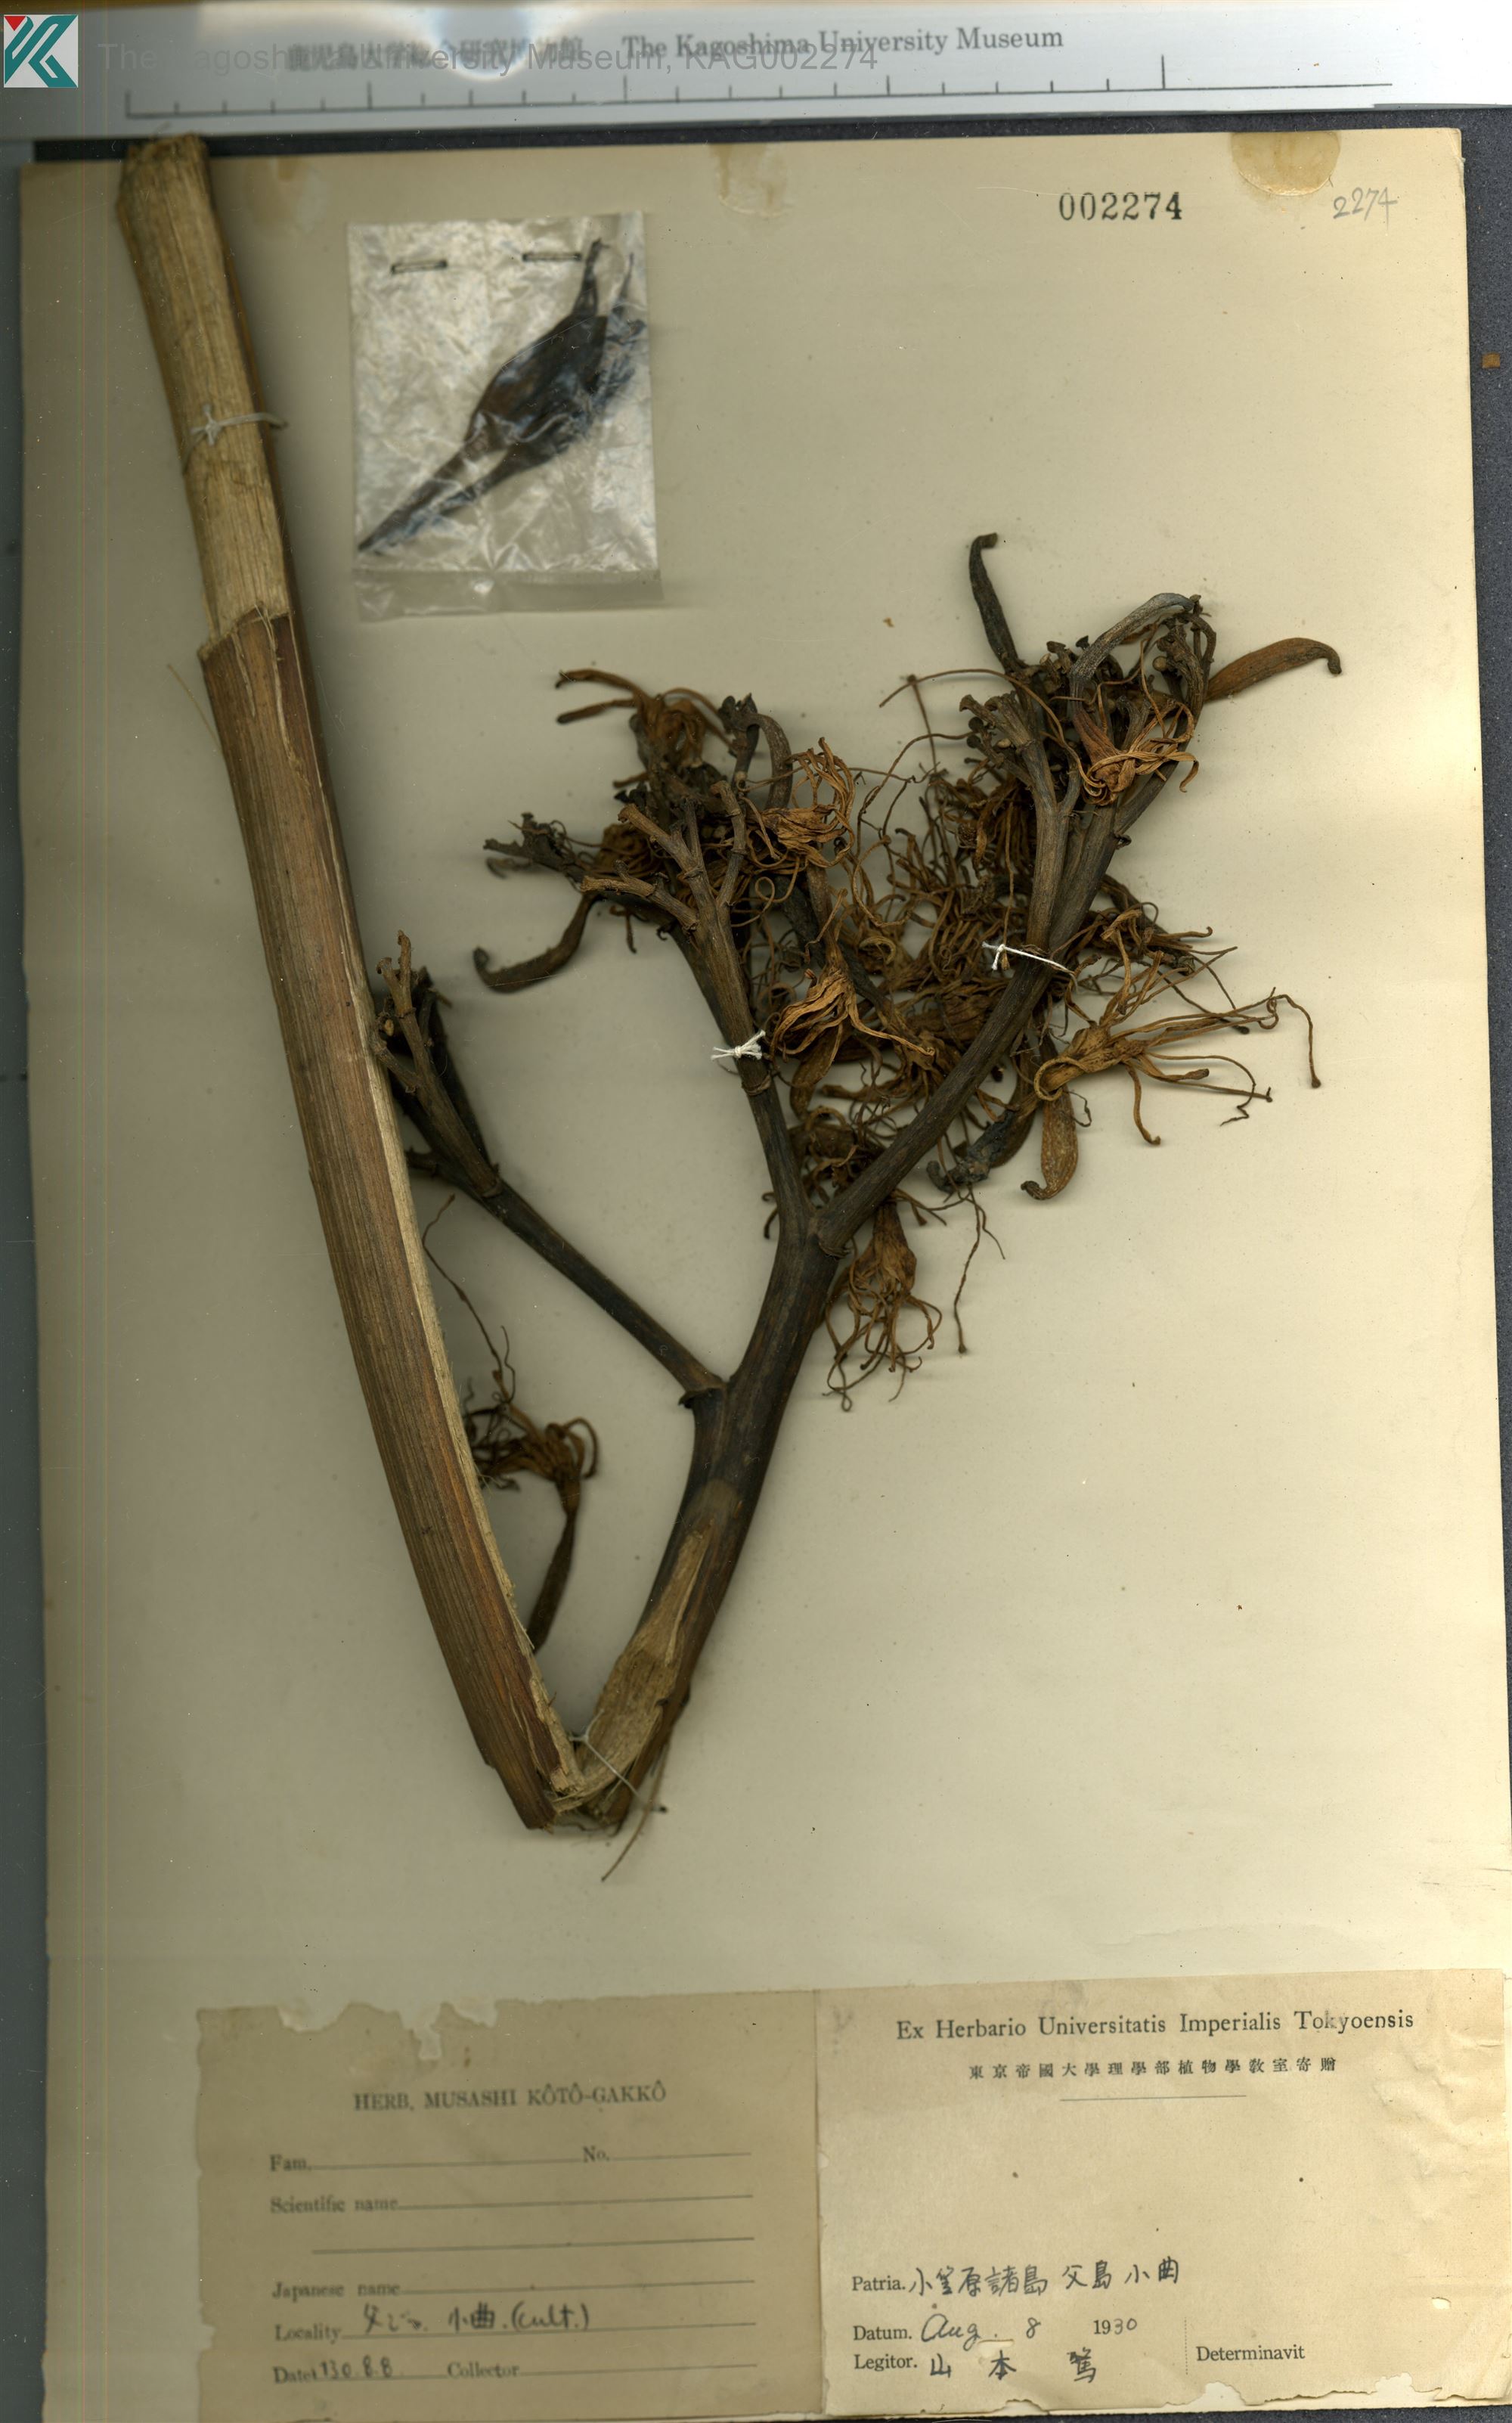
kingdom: Plantae
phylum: Tracheophyta
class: Liliopsida
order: Asparagales
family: Amaryllidaceae
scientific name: Amaryllidaceae
